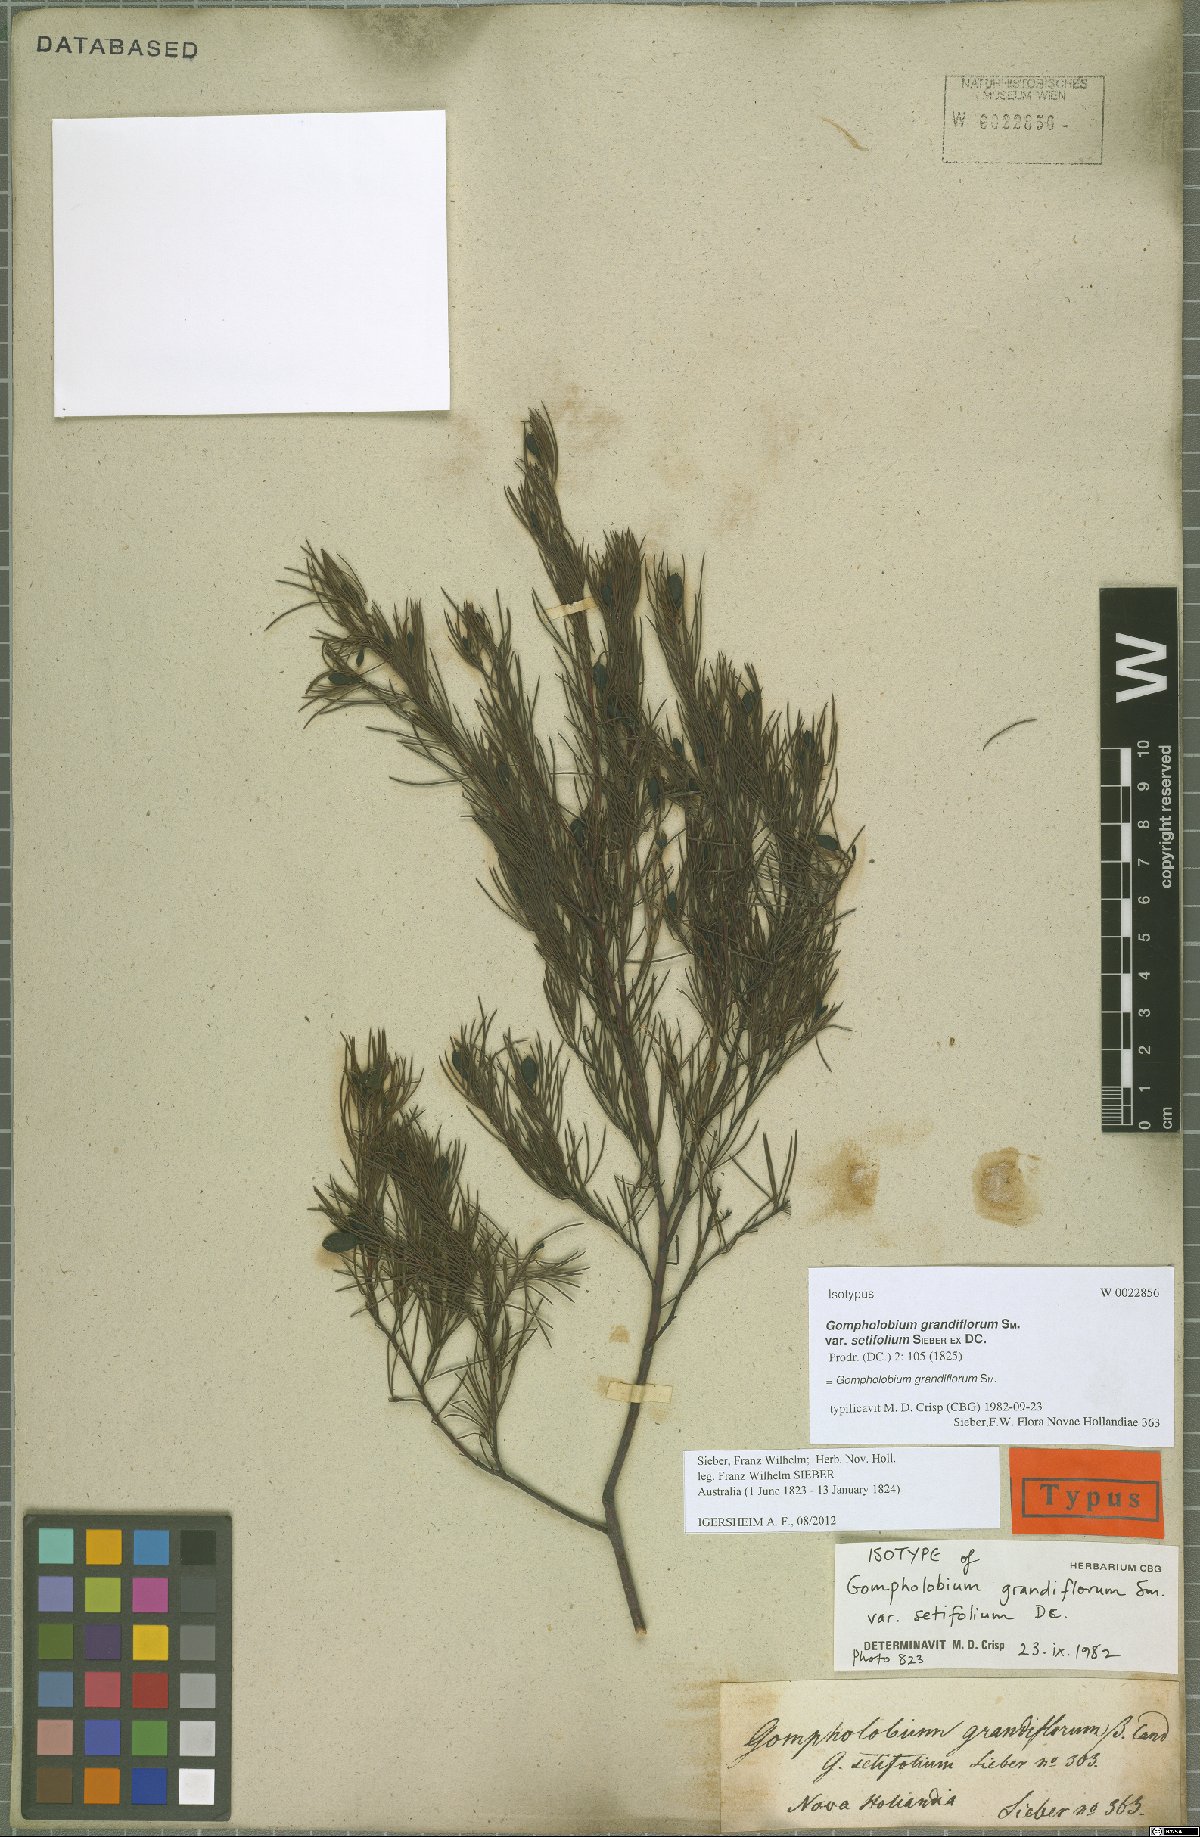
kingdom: Plantae
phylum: Tracheophyta
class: Magnoliopsida
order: Fabales
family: Fabaceae
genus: Gompholobium
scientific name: Gompholobium grandiflorum
